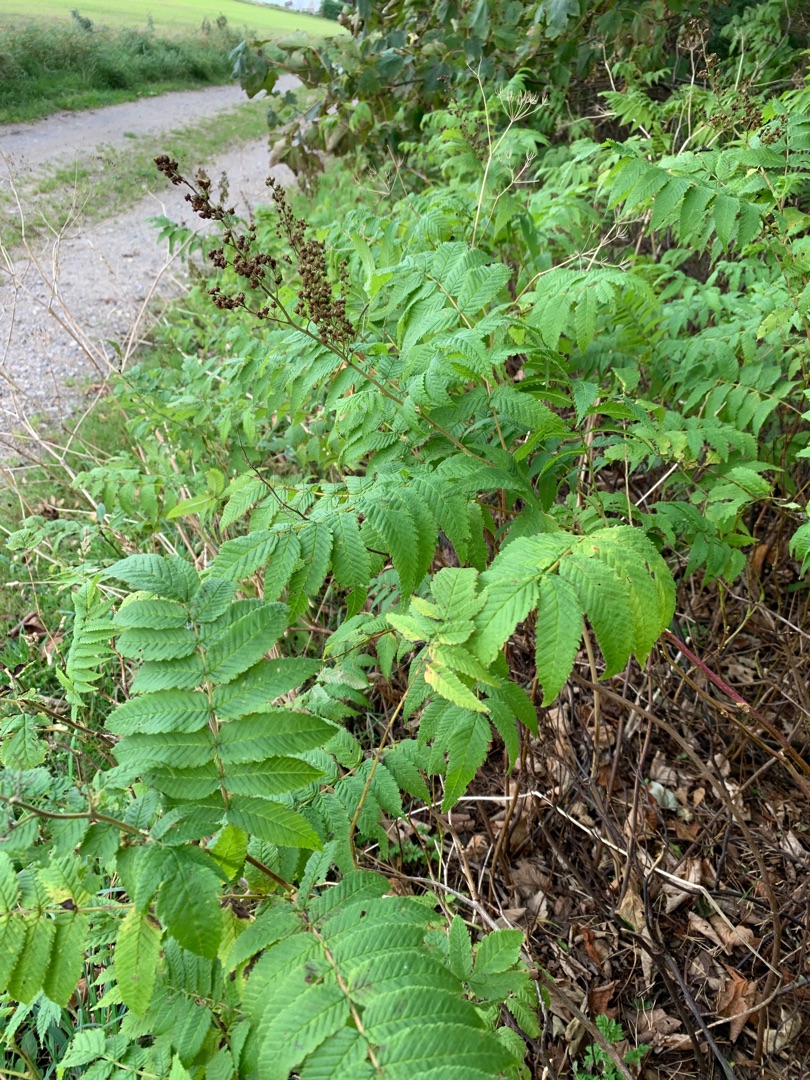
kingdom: Plantae
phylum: Tracheophyta
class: Magnoliopsida
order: Rosales
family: Rosaceae
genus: Sorbaria
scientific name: Sorbaria sorbifolia
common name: Tusindtop
